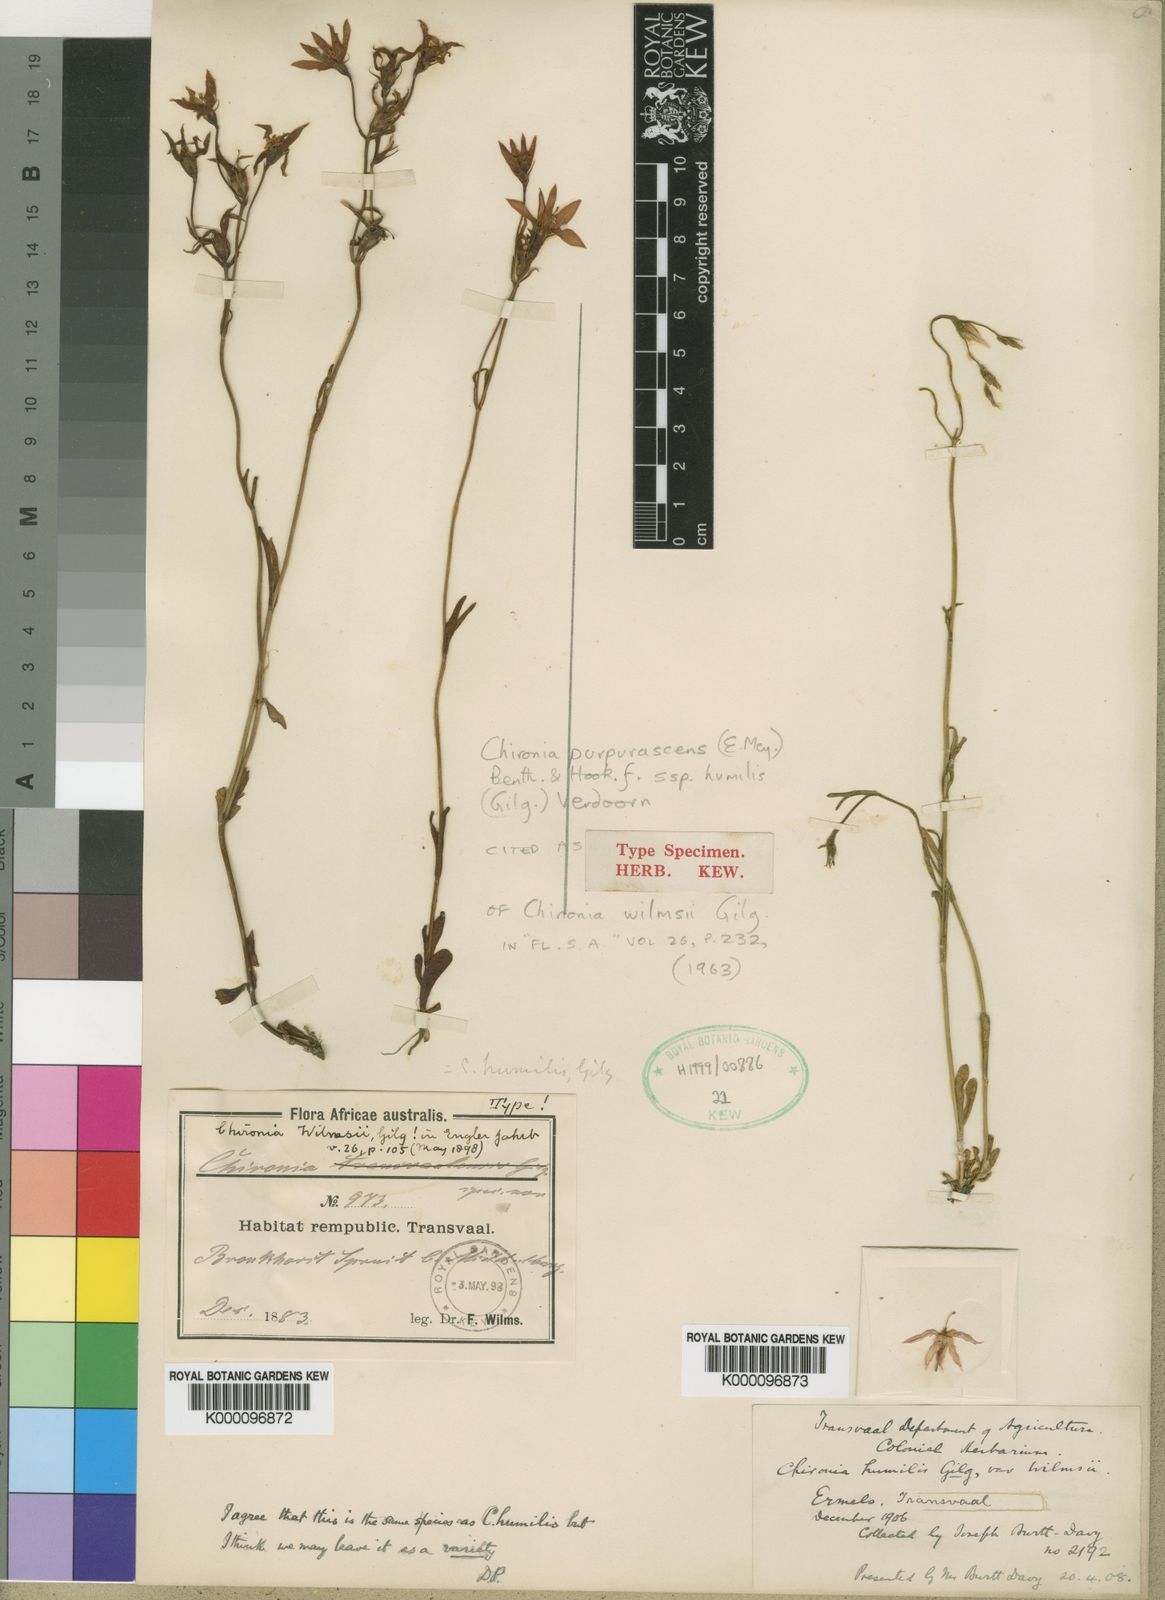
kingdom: Plantae
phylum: Tracheophyta
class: Magnoliopsida
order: Gentianales
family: Gentianaceae
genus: Chironia
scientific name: Chironia purpurascens
